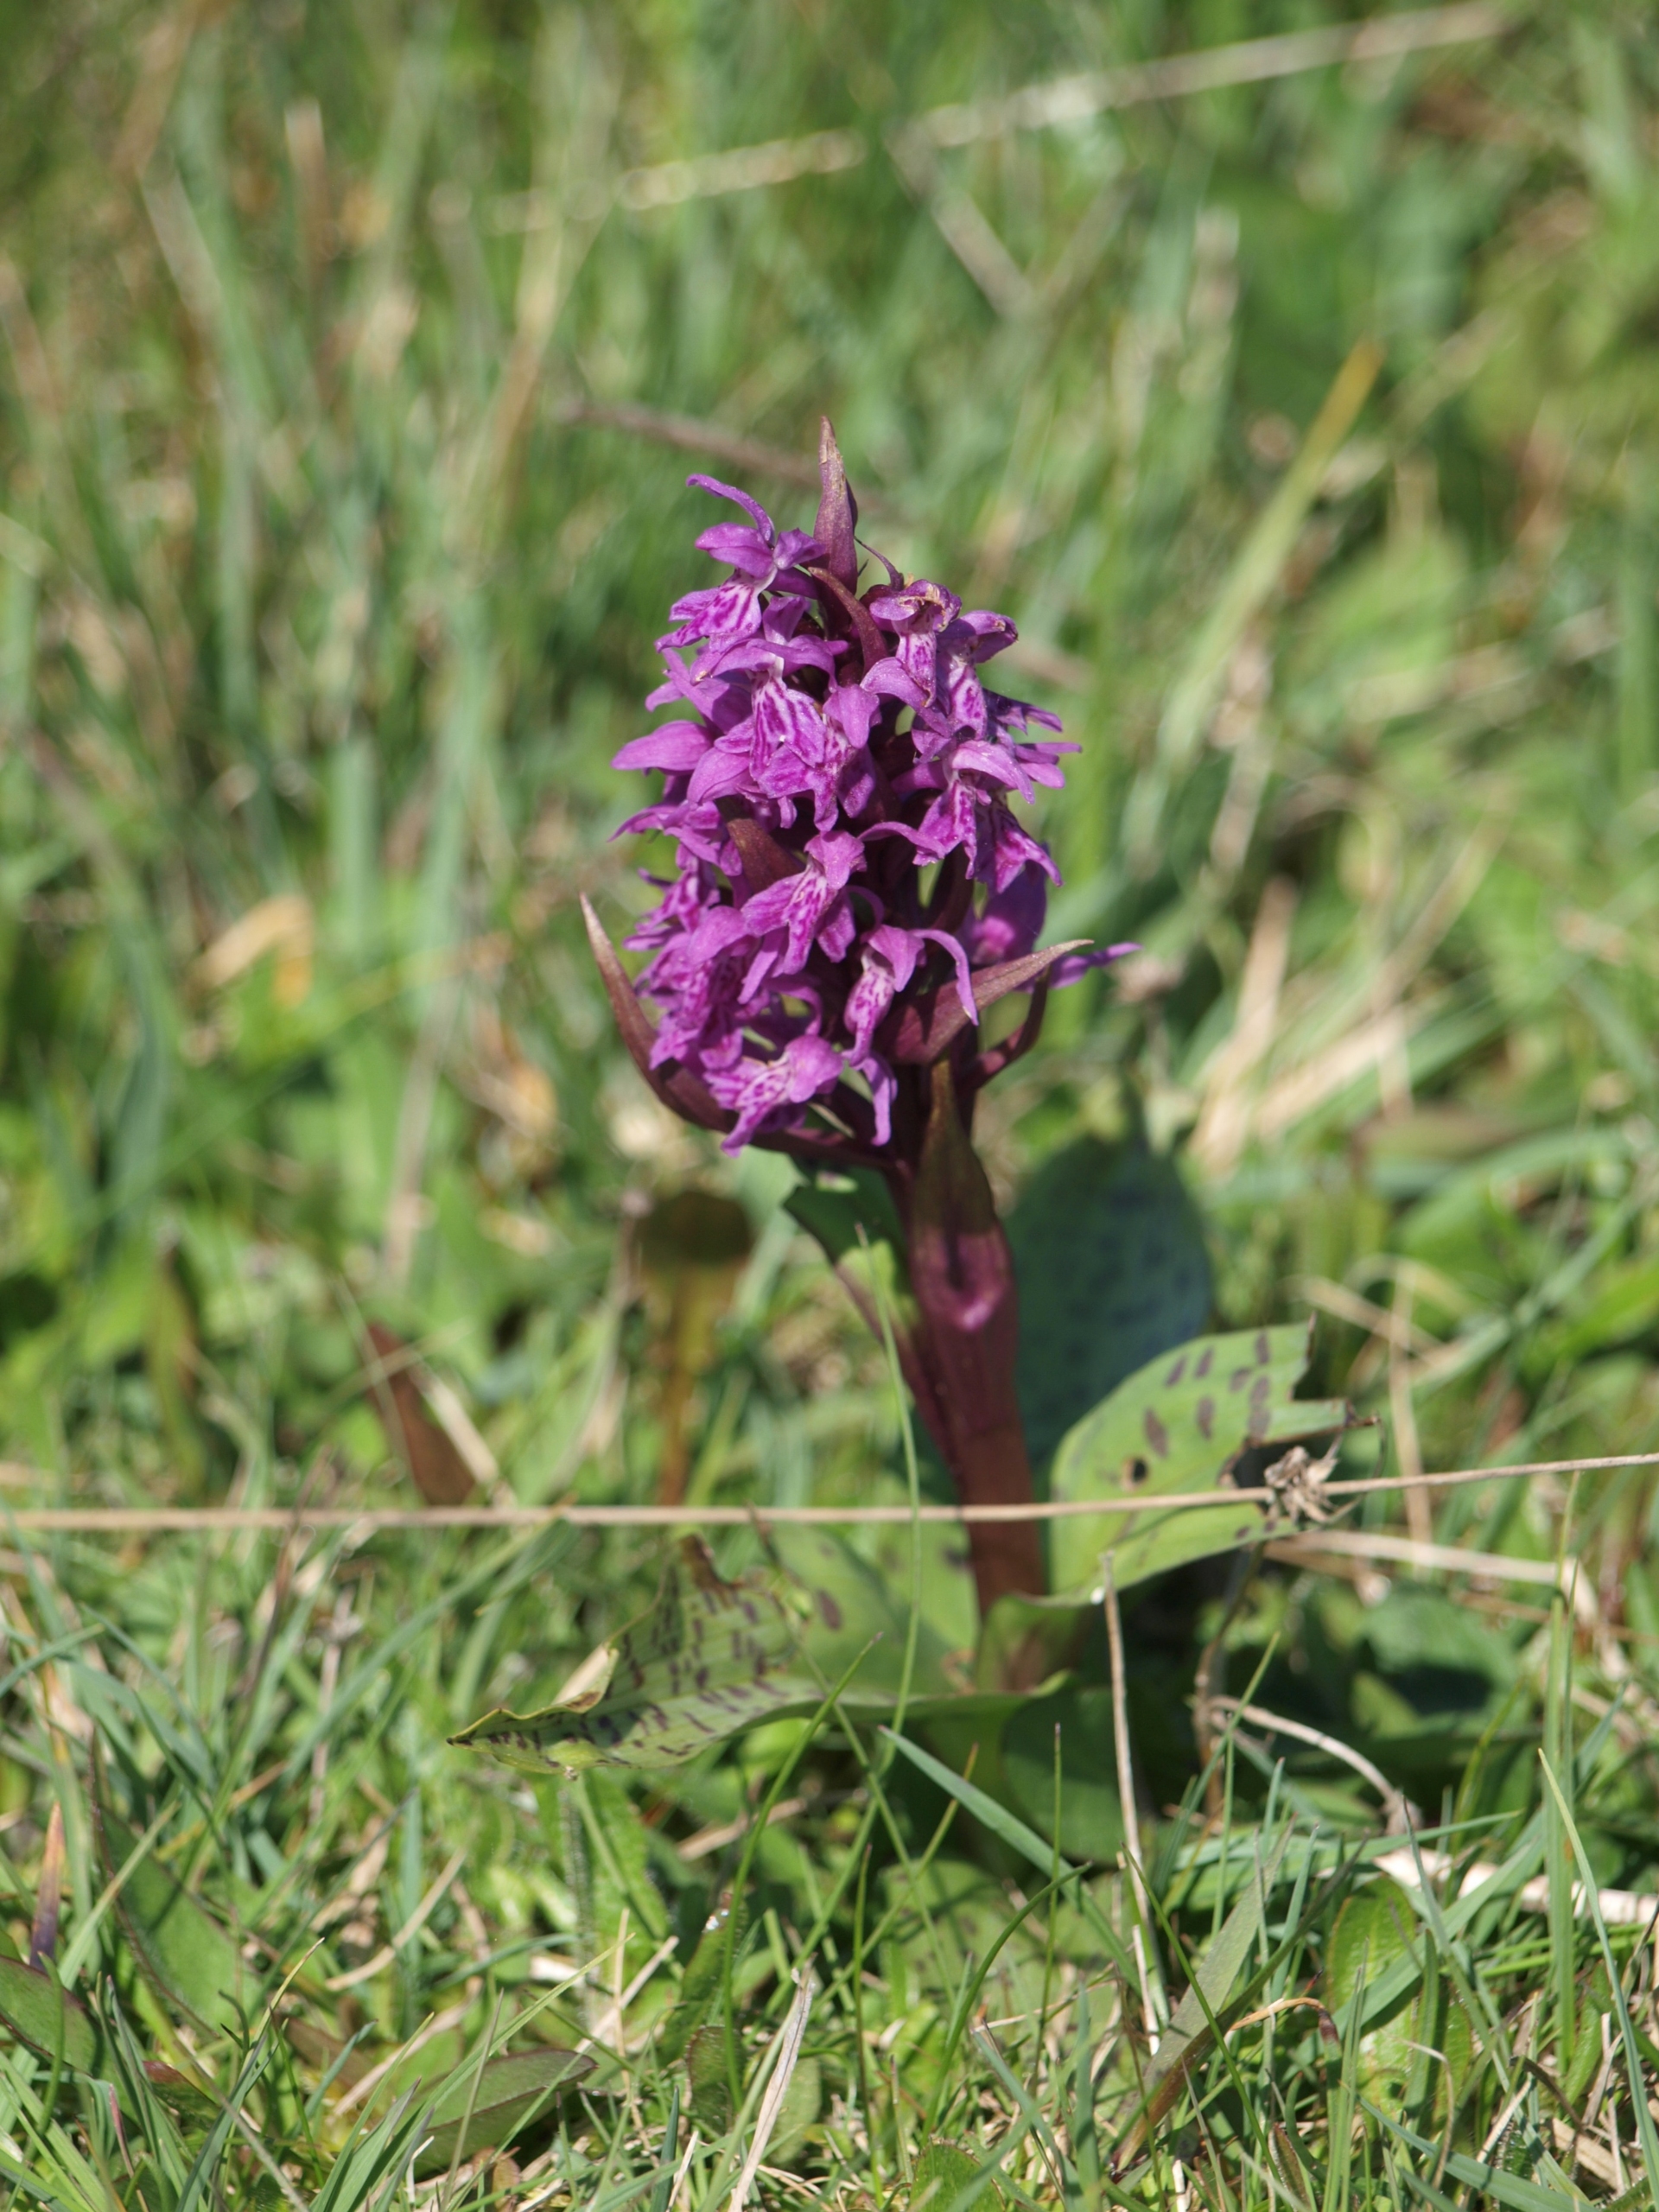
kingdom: Plantae
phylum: Tracheophyta
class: Liliopsida
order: Asparagales
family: Orchidaceae
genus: Dactylorhiza
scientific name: Dactylorhiza majalis
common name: Maj-gøgeurt
